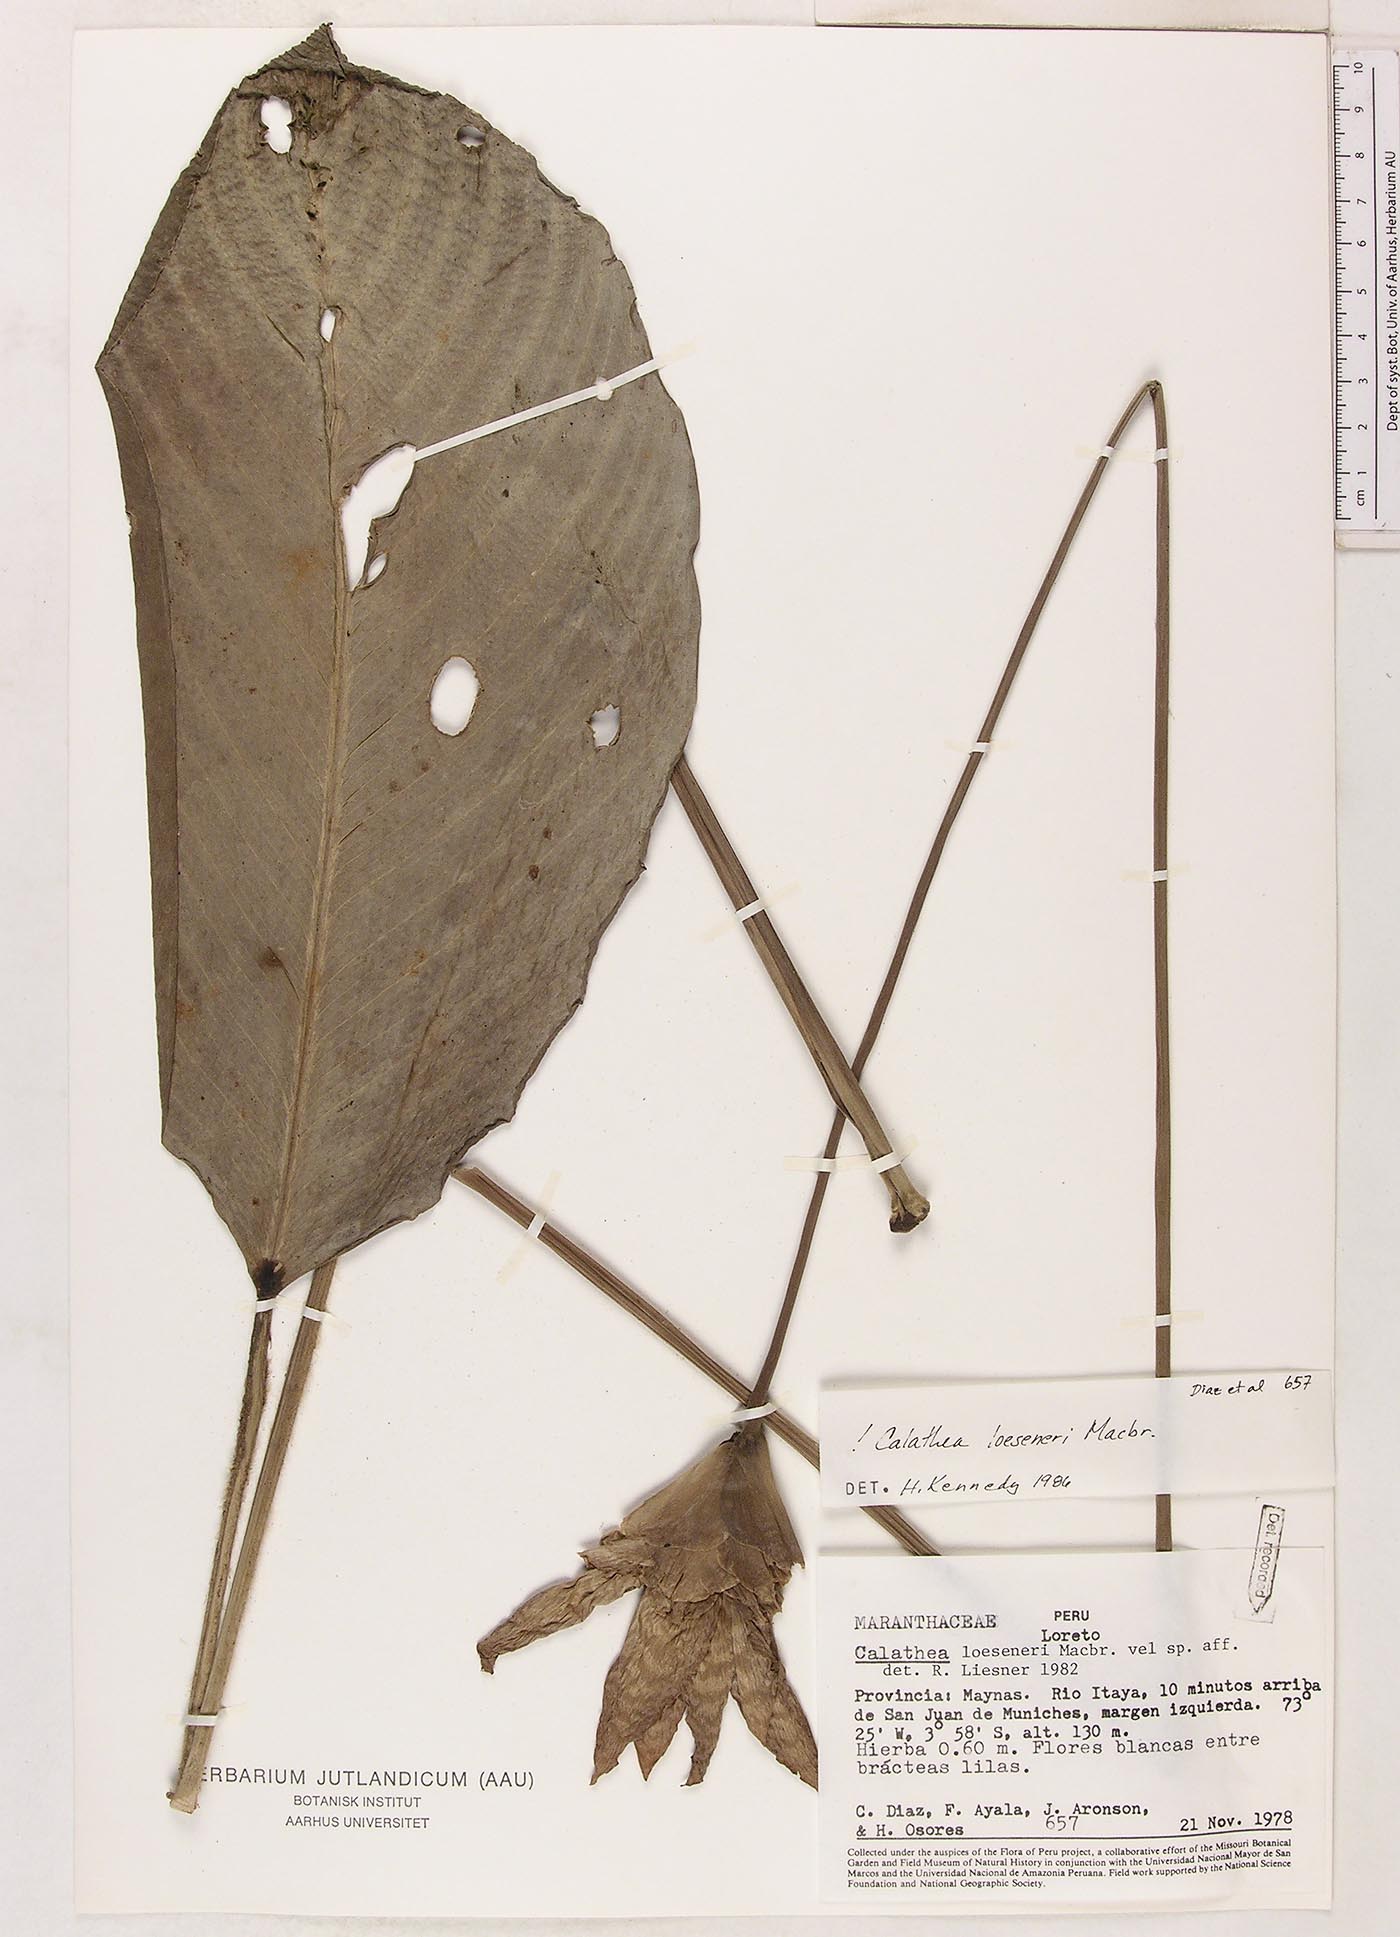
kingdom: Plantae
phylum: Tracheophyta
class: Liliopsida
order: Zingiberales
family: Marantaceae
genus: Goeppertia
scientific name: Goeppertia loeseneri
